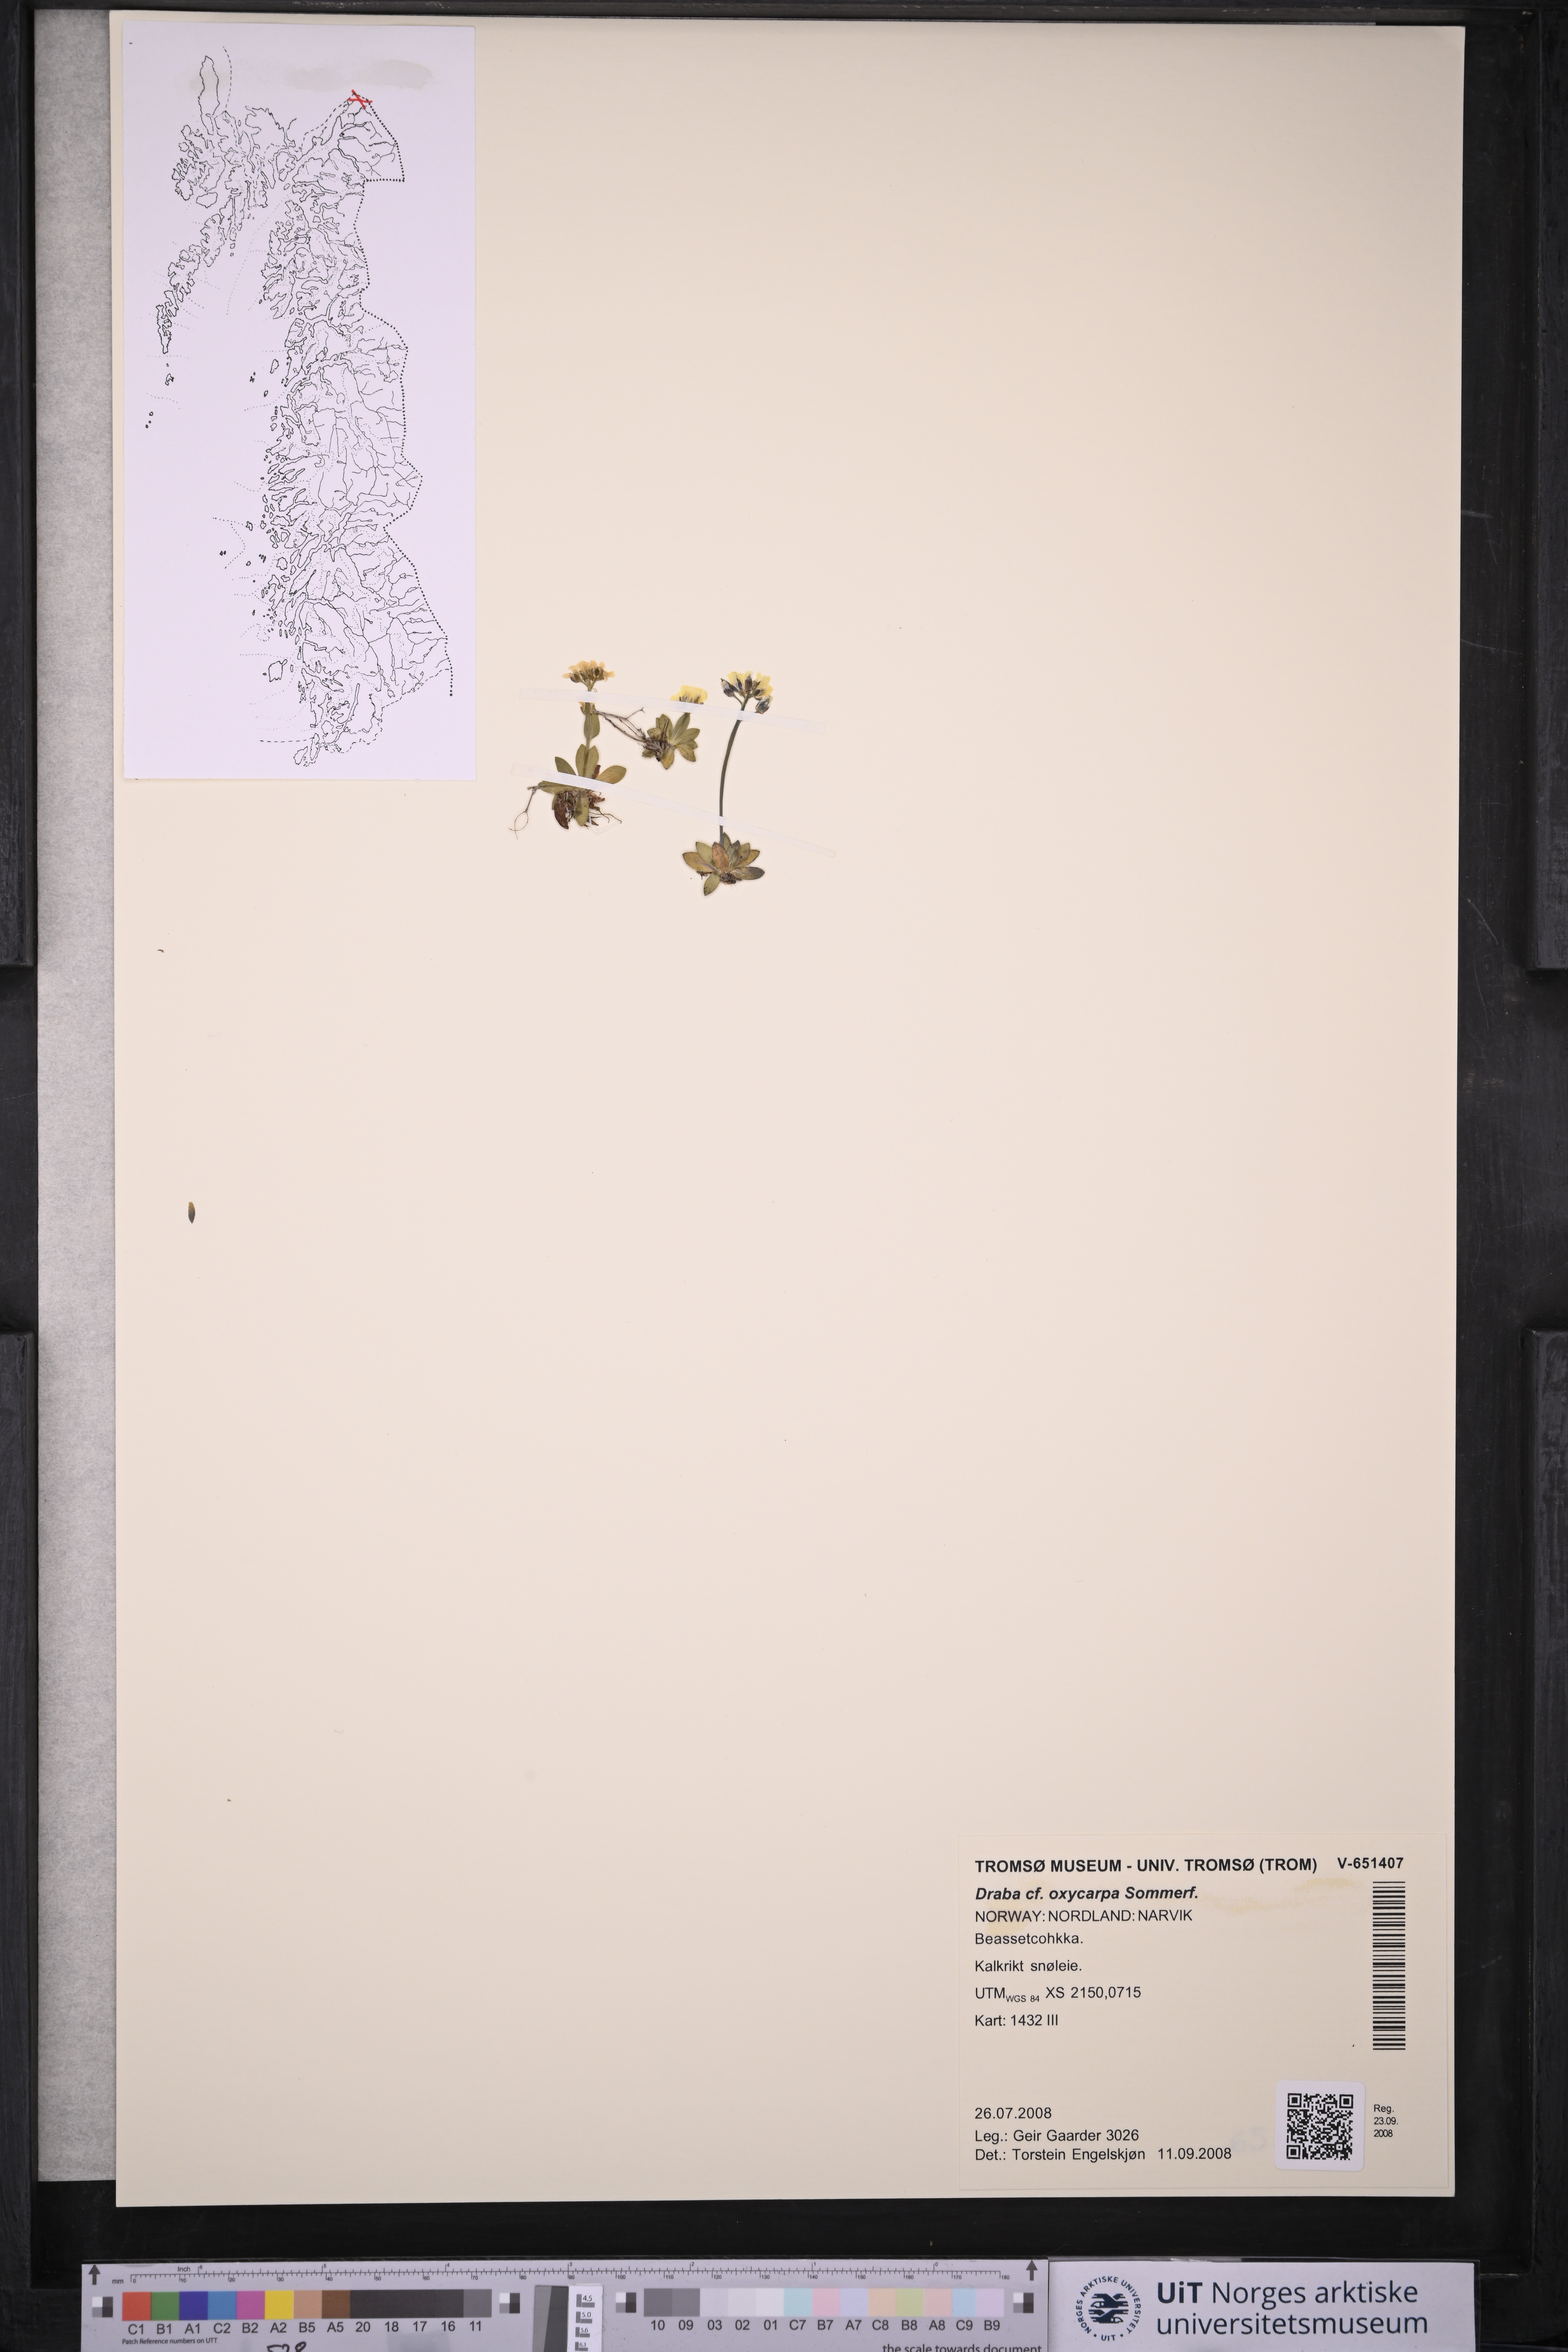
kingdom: Plantae
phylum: Tracheophyta
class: Magnoliopsida
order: Brassicales
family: Brassicaceae
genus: Draba
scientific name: Draba oxycarpa
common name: Sharp-fruited whitlow-grass
